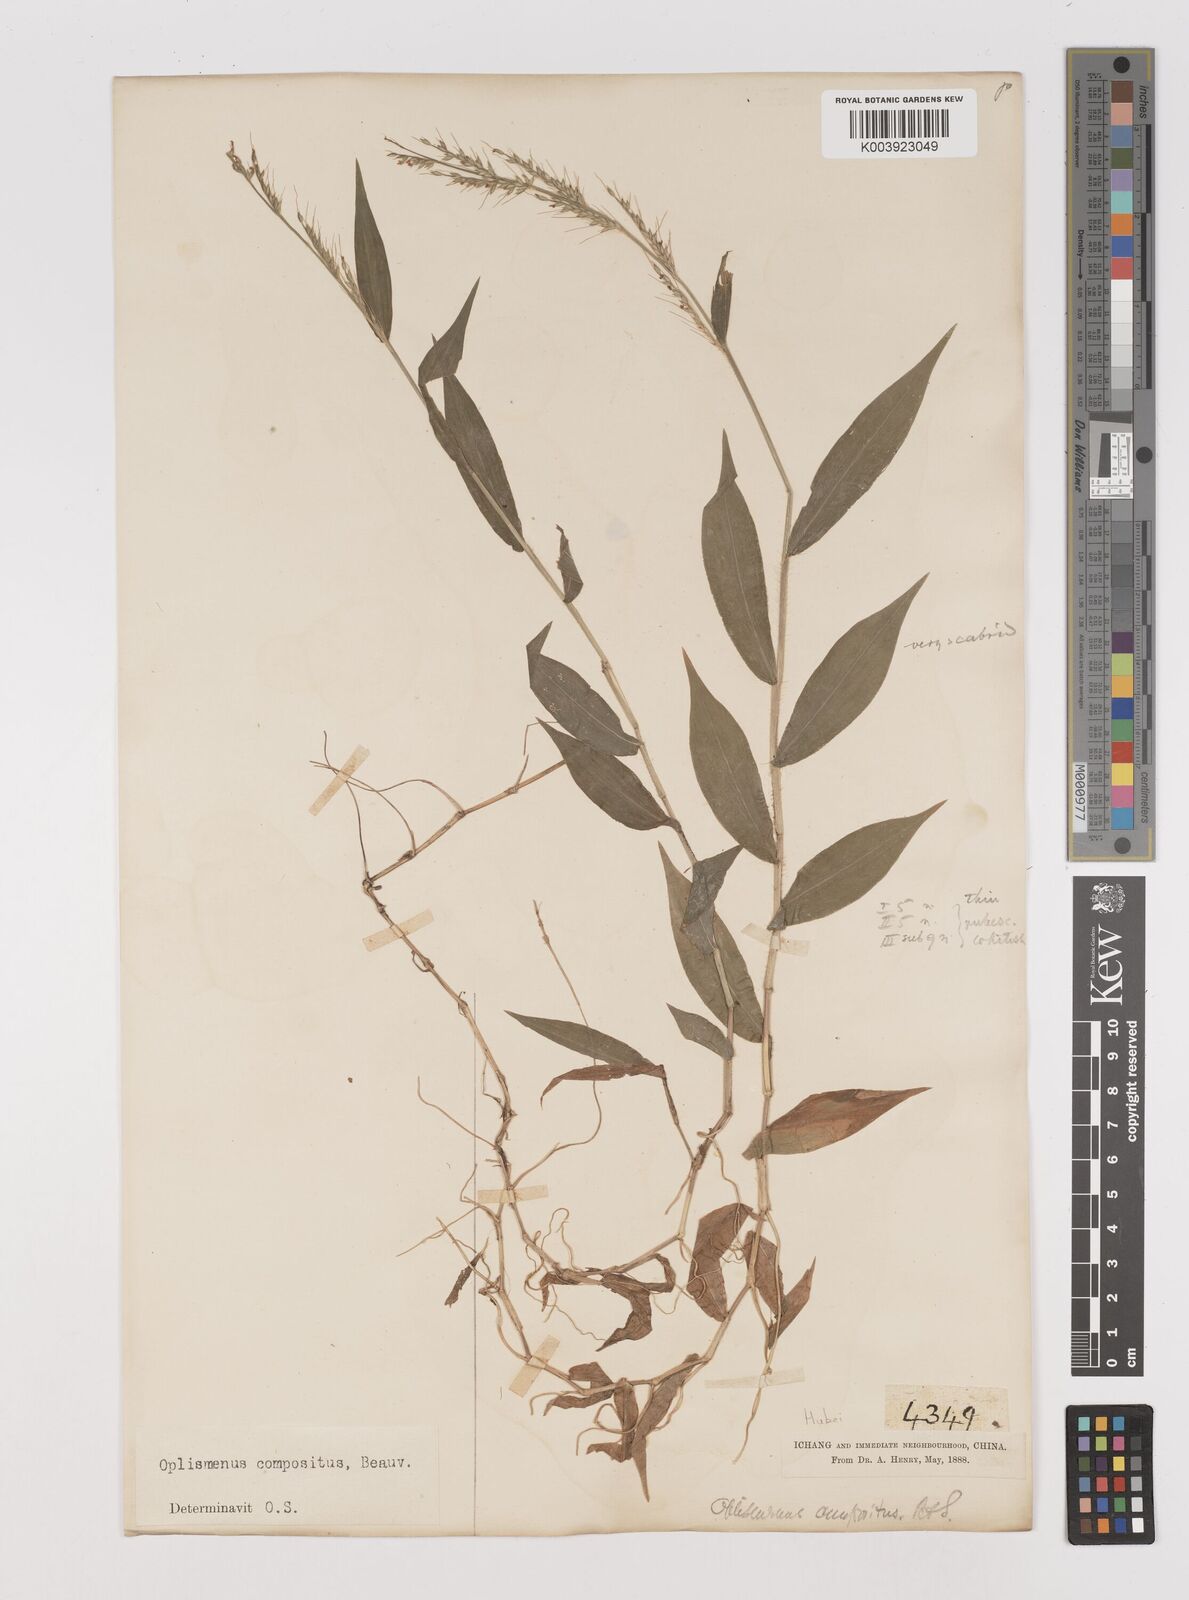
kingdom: Plantae
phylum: Tracheophyta
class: Liliopsida
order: Poales
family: Poaceae
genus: Oplismenus
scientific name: Oplismenus compositus
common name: Running mountain grass
